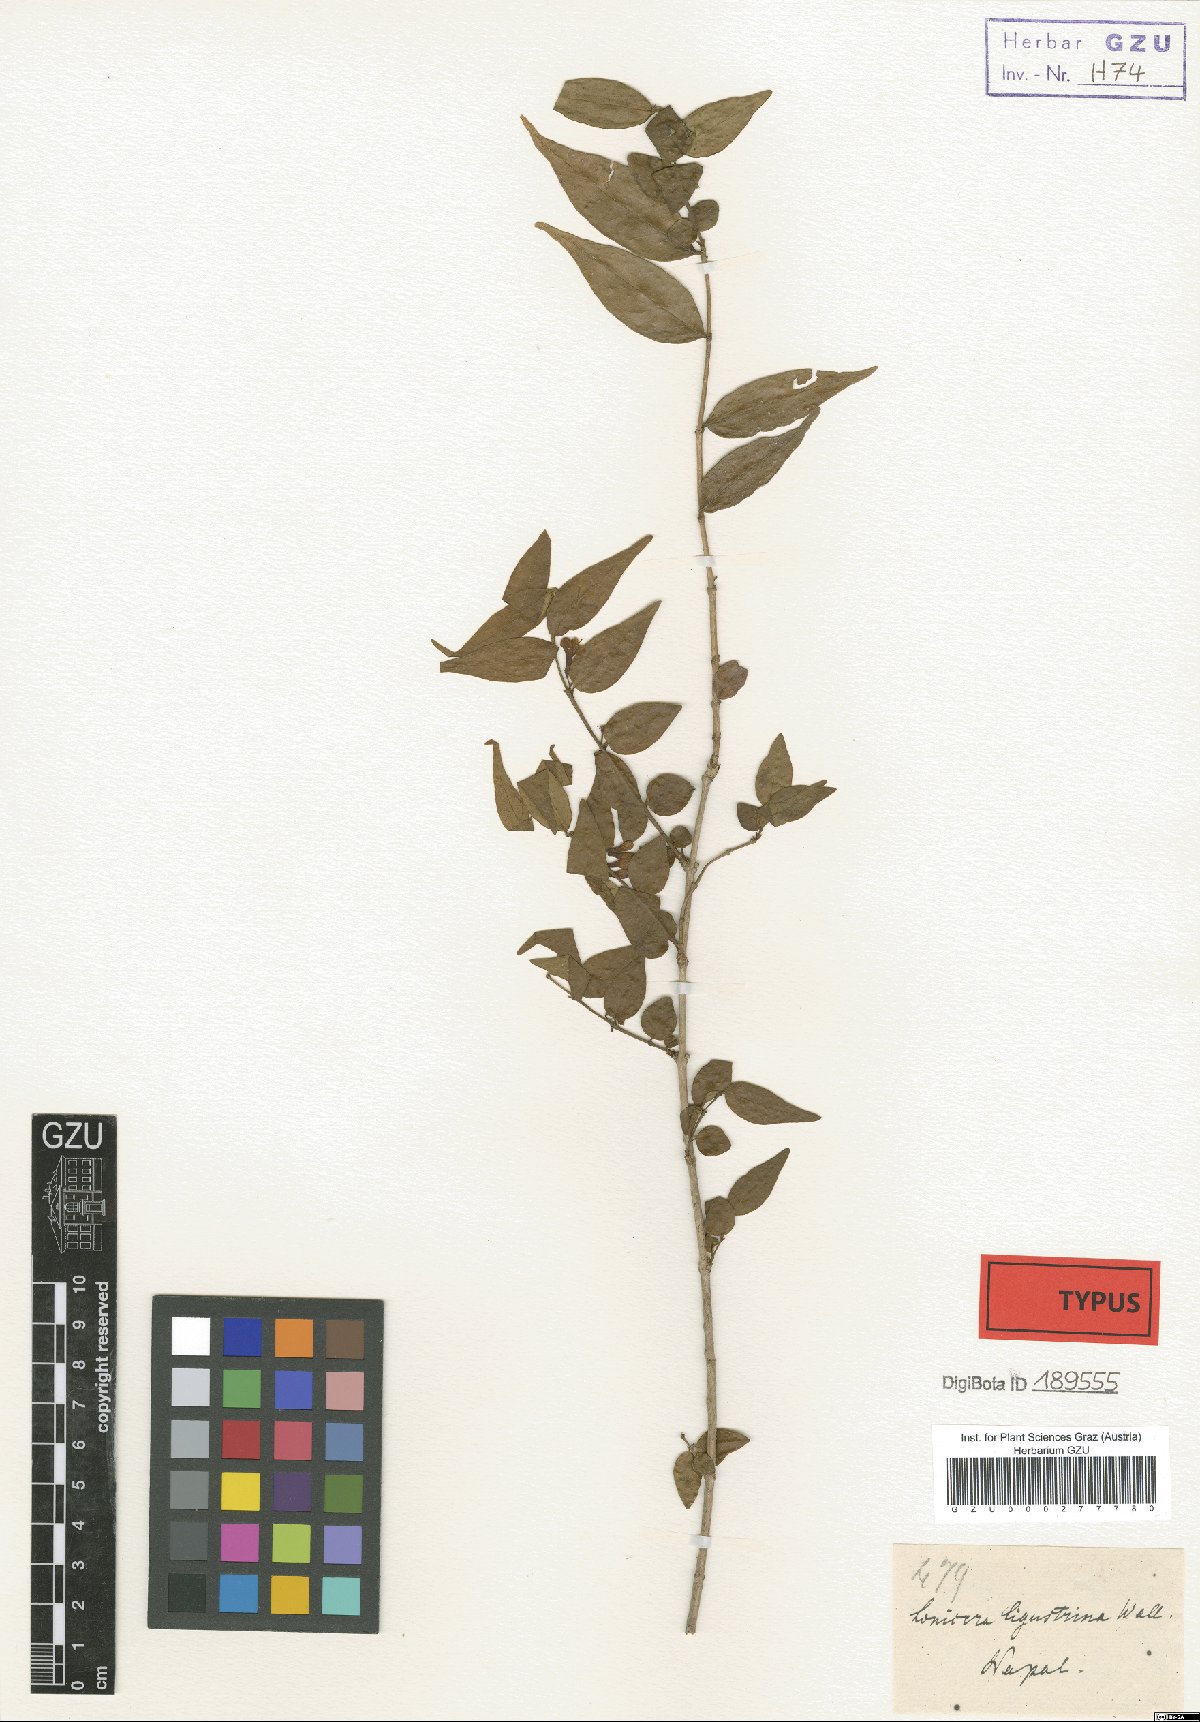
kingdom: Plantae
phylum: Tracheophyta
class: Magnoliopsida
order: Dipsacales
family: Caprifoliaceae
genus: Lonicera
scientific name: Lonicera ligustrina
